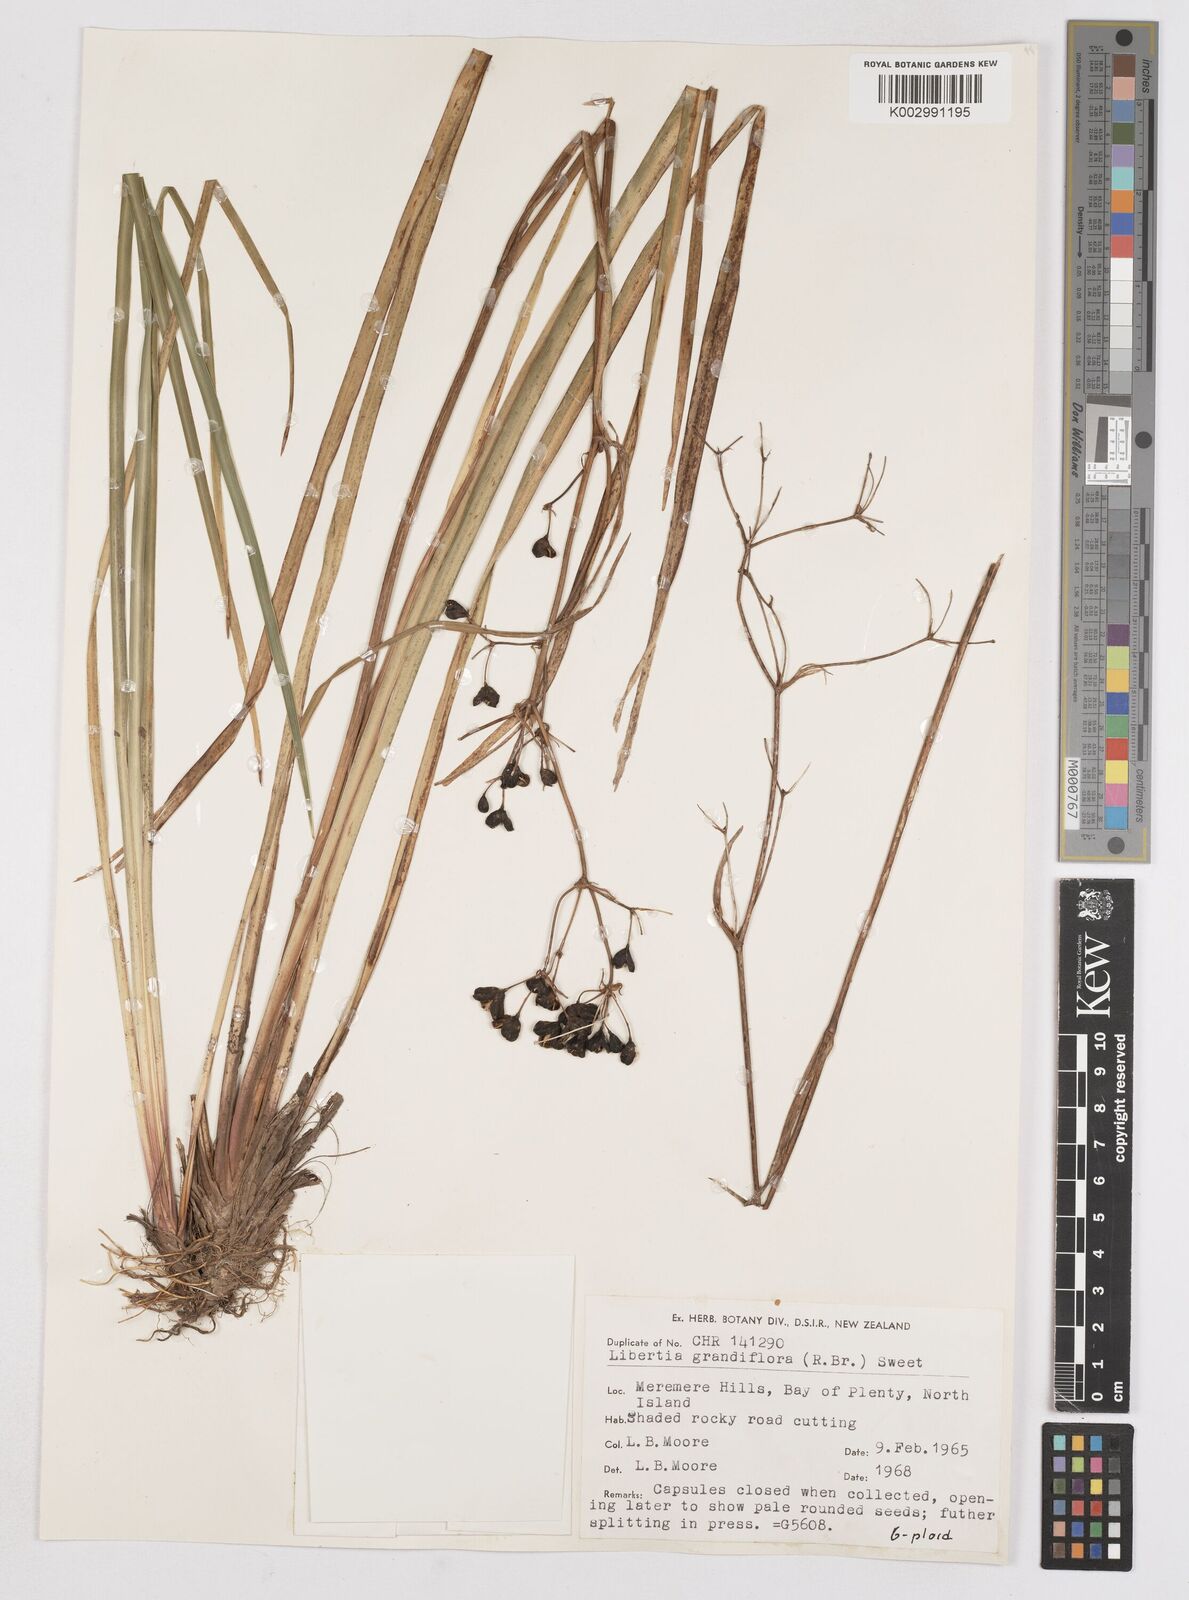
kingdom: Plantae
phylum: Tracheophyta
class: Liliopsida
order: Asparagales
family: Iridaceae
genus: Libertia
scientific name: Libertia grandiflora
